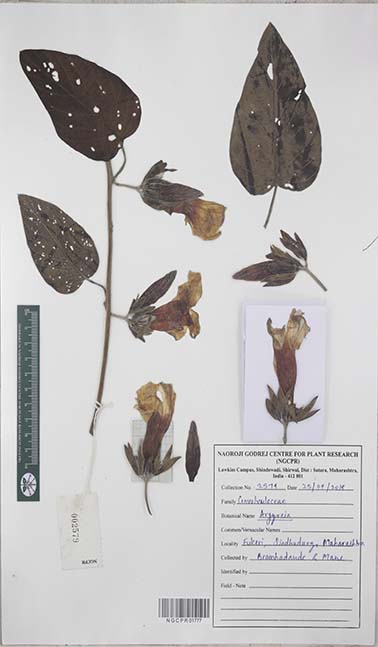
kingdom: Plantae
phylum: Tracheophyta
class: Magnoliopsida
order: Solanales
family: Convolvulaceae
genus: Argyreia
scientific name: Argyreia
